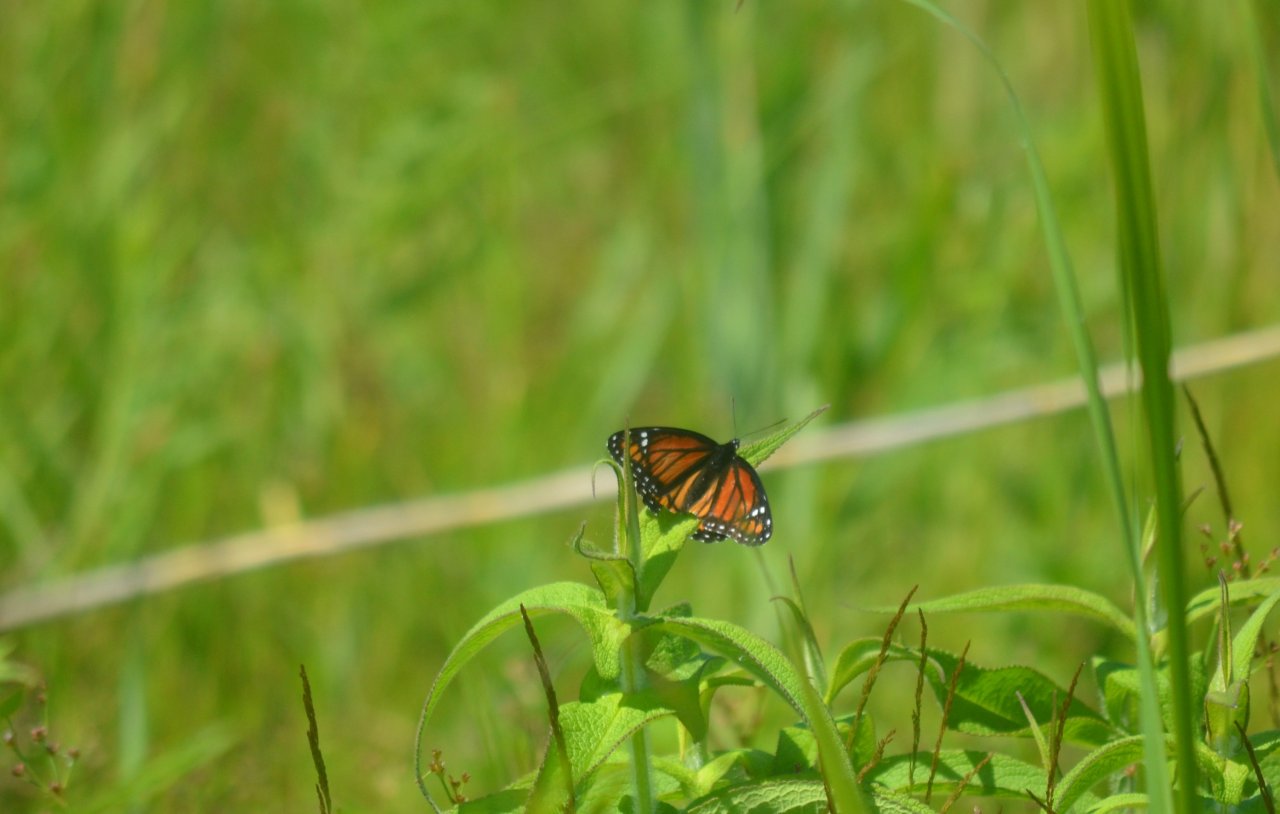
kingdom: Animalia
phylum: Arthropoda
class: Insecta
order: Lepidoptera
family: Nymphalidae
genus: Limenitis
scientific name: Limenitis archippus
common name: Viceroy
